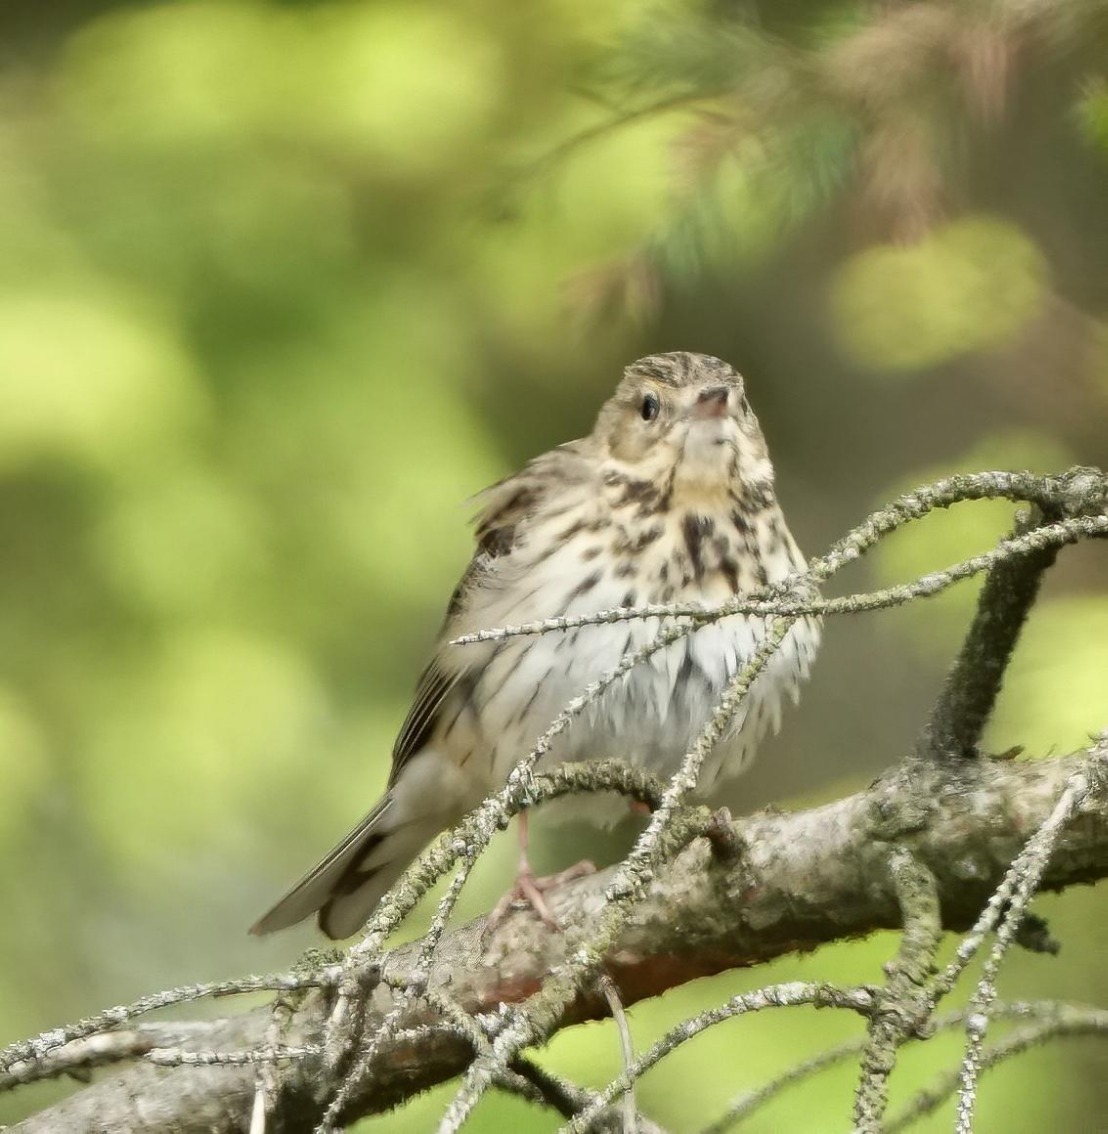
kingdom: Animalia
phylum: Chordata
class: Aves
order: Passeriformes
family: Motacillidae
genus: Anthus
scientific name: Anthus trivialis
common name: Skovpiber
